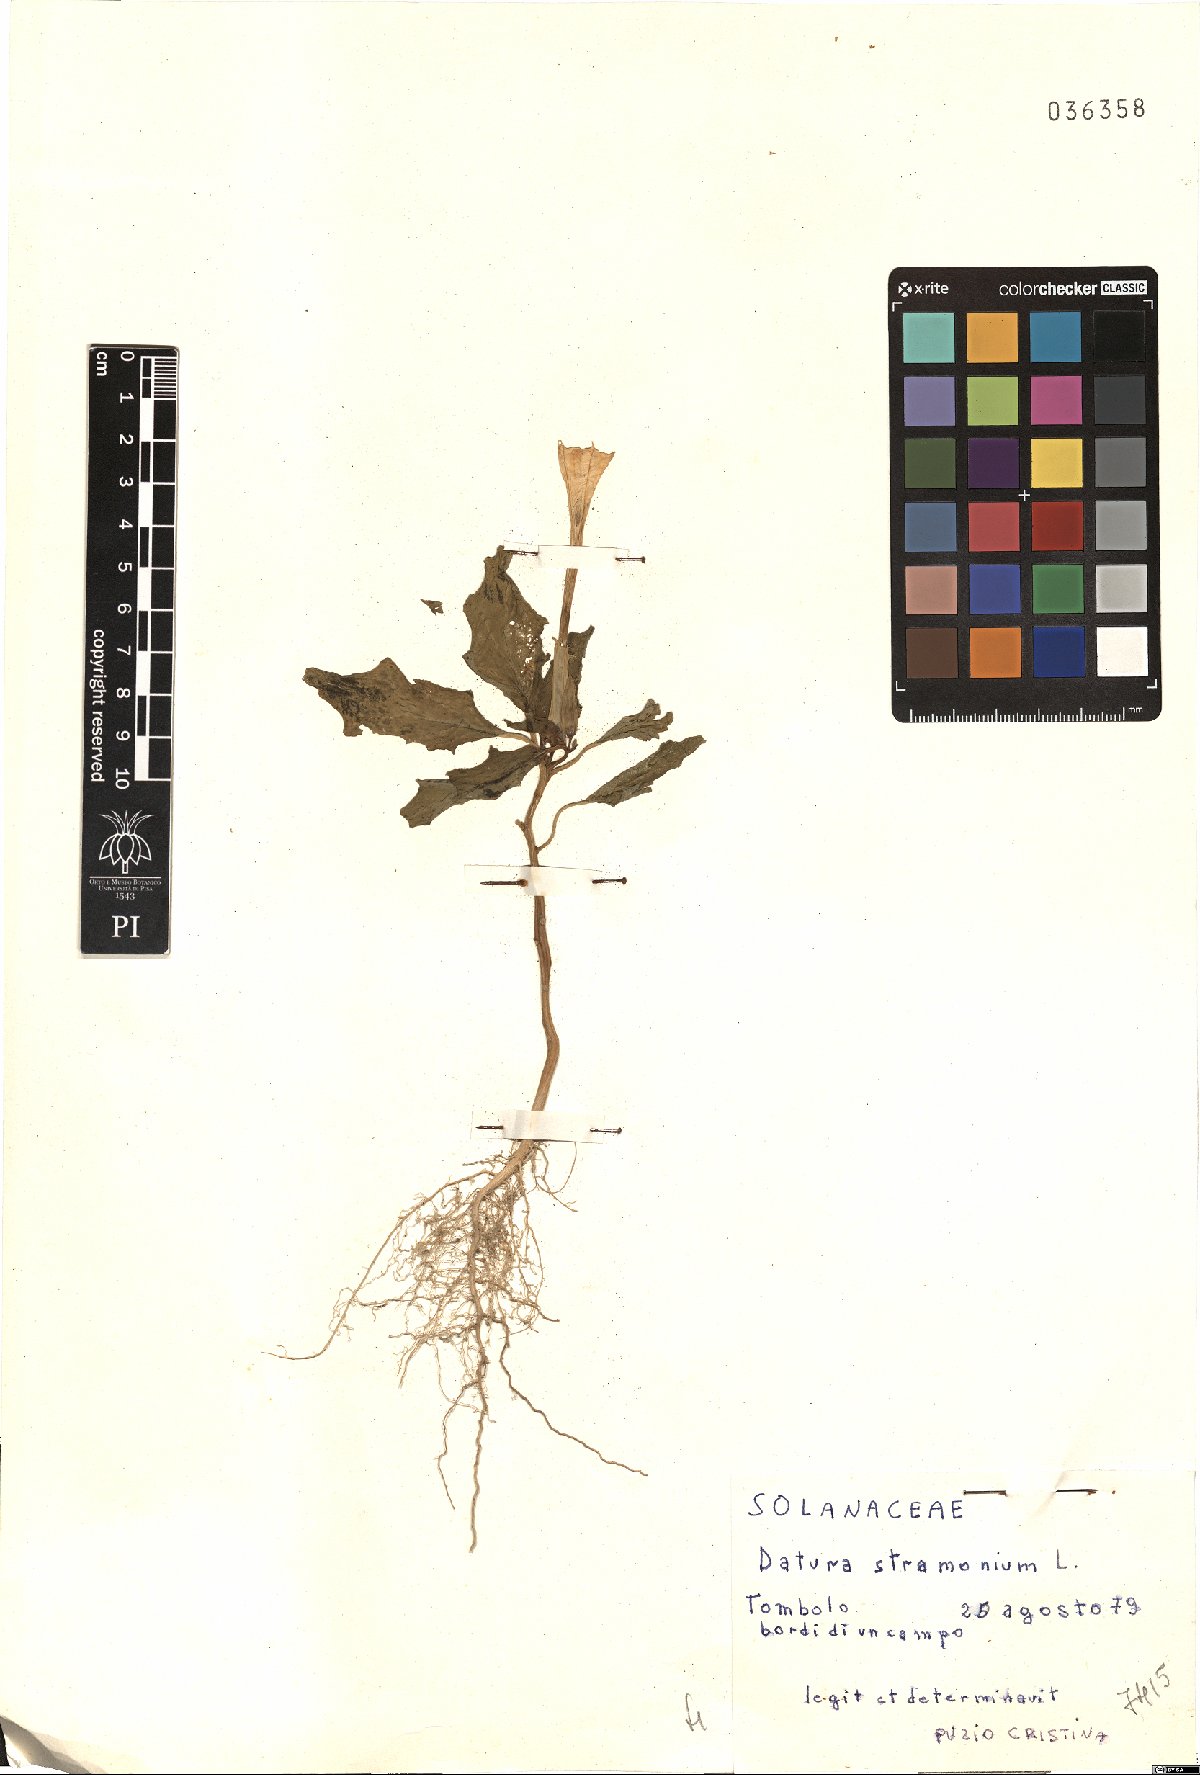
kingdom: Plantae
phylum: Tracheophyta
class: Magnoliopsida
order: Solanales
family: Solanaceae
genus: Datura
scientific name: Datura stramonium
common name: Thorn-apple
